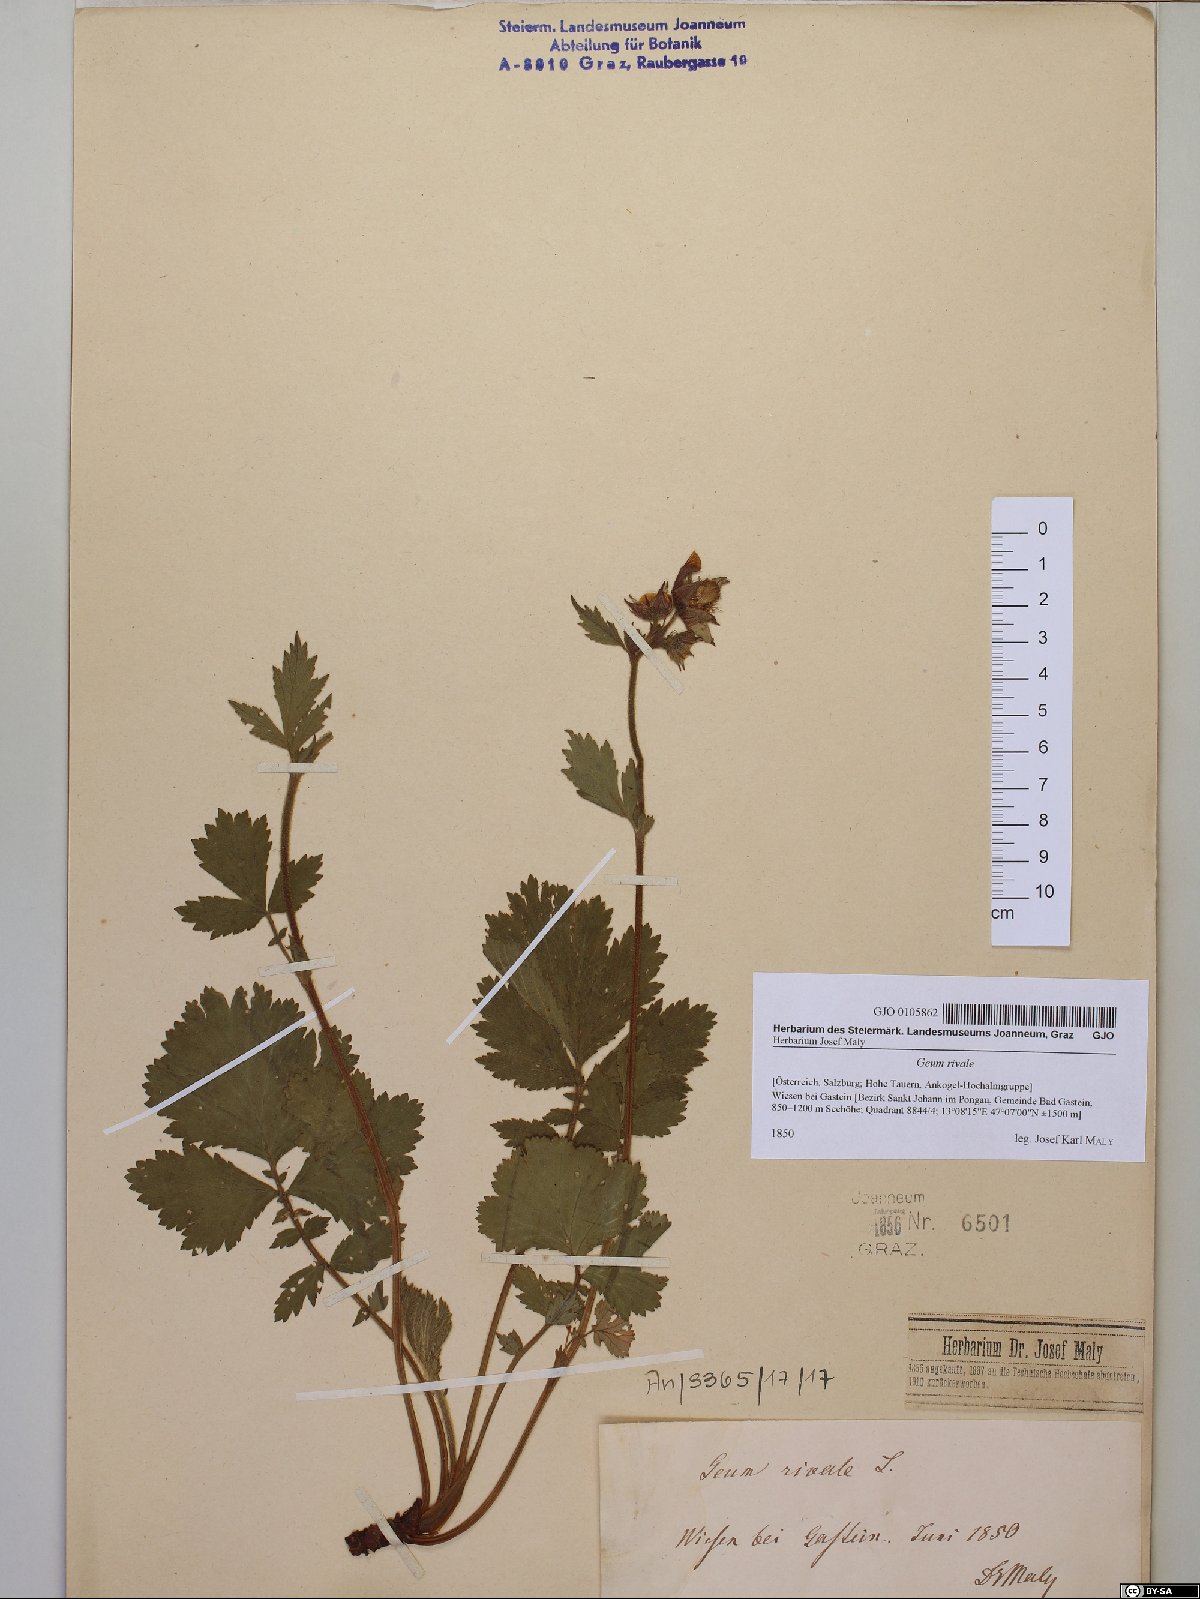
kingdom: Plantae
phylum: Tracheophyta
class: Magnoliopsida
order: Rosales
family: Rosaceae
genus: Geum
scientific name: Geum rivale
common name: Water avens
